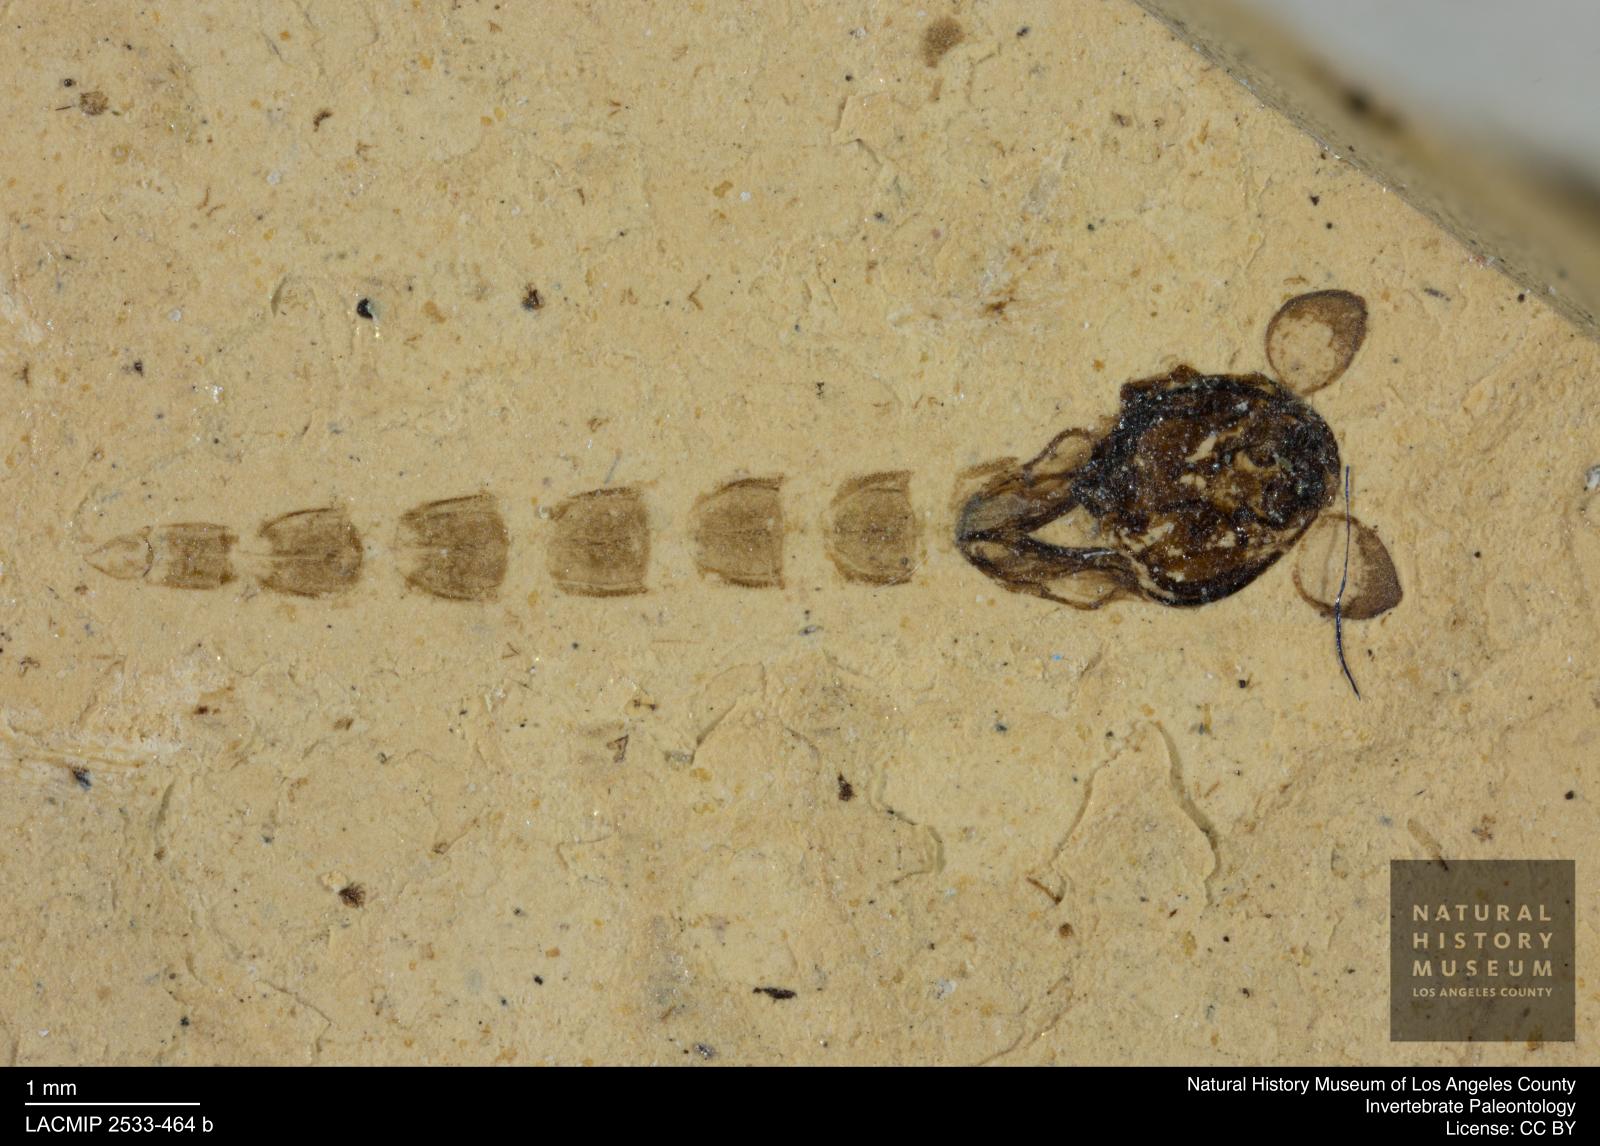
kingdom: Animalia
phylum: Arthropoda
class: Insecta
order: Diptera
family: Chironomidae
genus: Tanypus
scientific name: Tanypus
